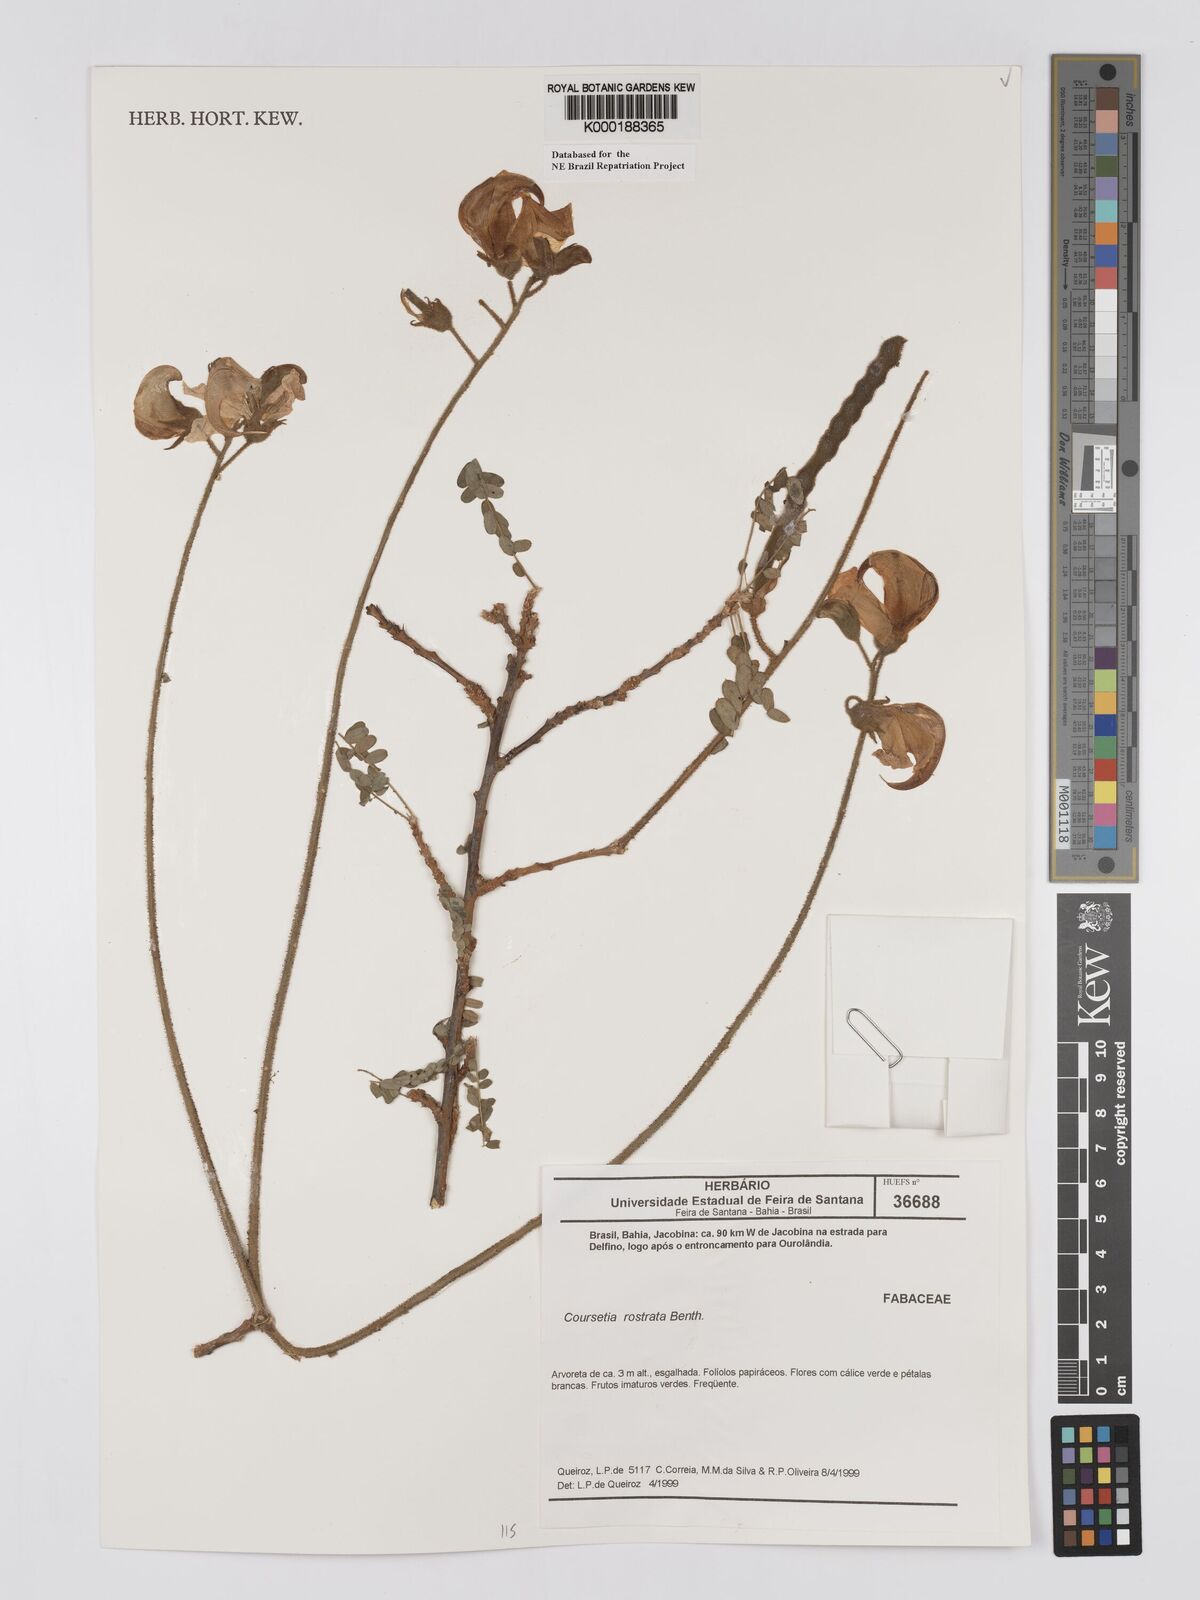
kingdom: Plantae
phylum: Tracheophyta
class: Magnoliopsida
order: Fabales
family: Fabaceae
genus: Coursetia
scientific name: Coursetia rostrata
